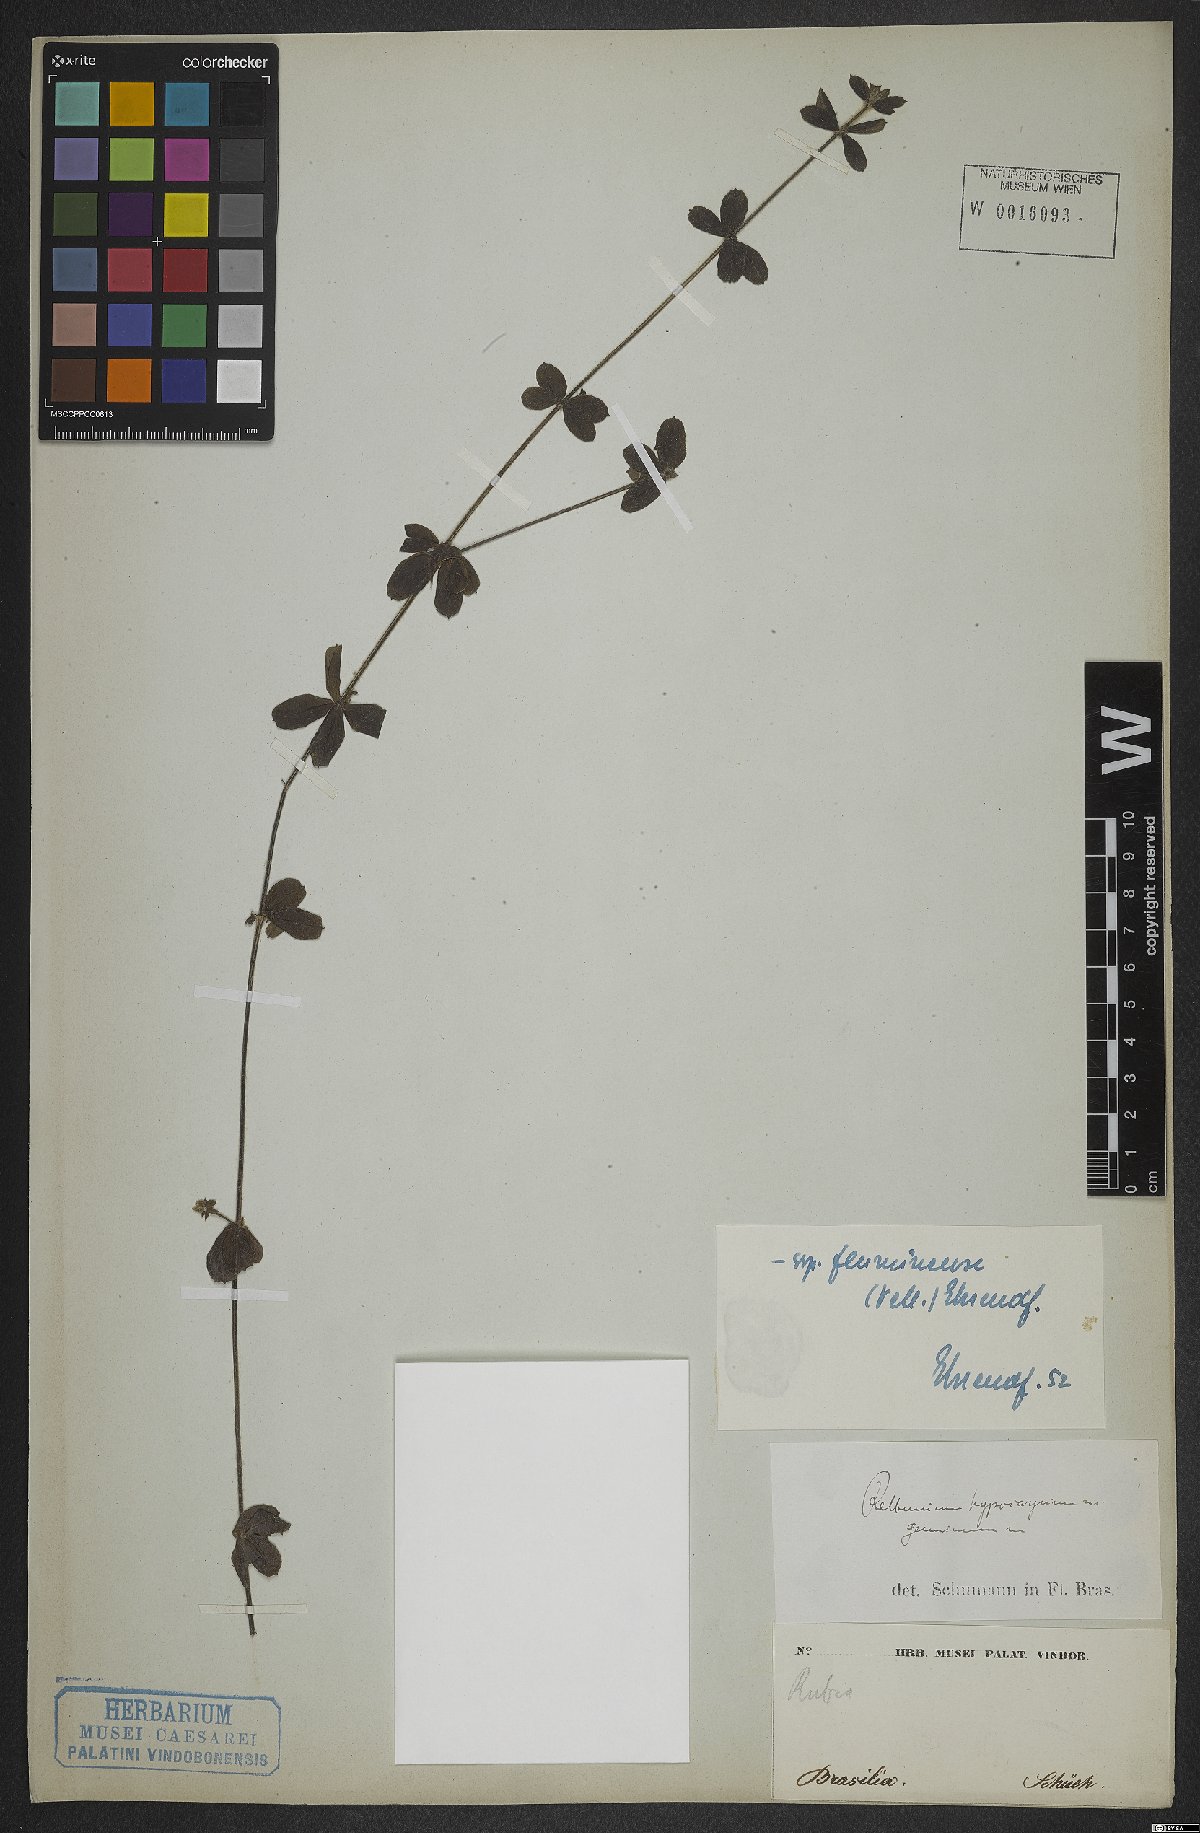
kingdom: Plantae
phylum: Tracheophyta
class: Magnoliopsida
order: Gentianales
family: Rubiaceae
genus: Galium
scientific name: Galium hypocarpium
